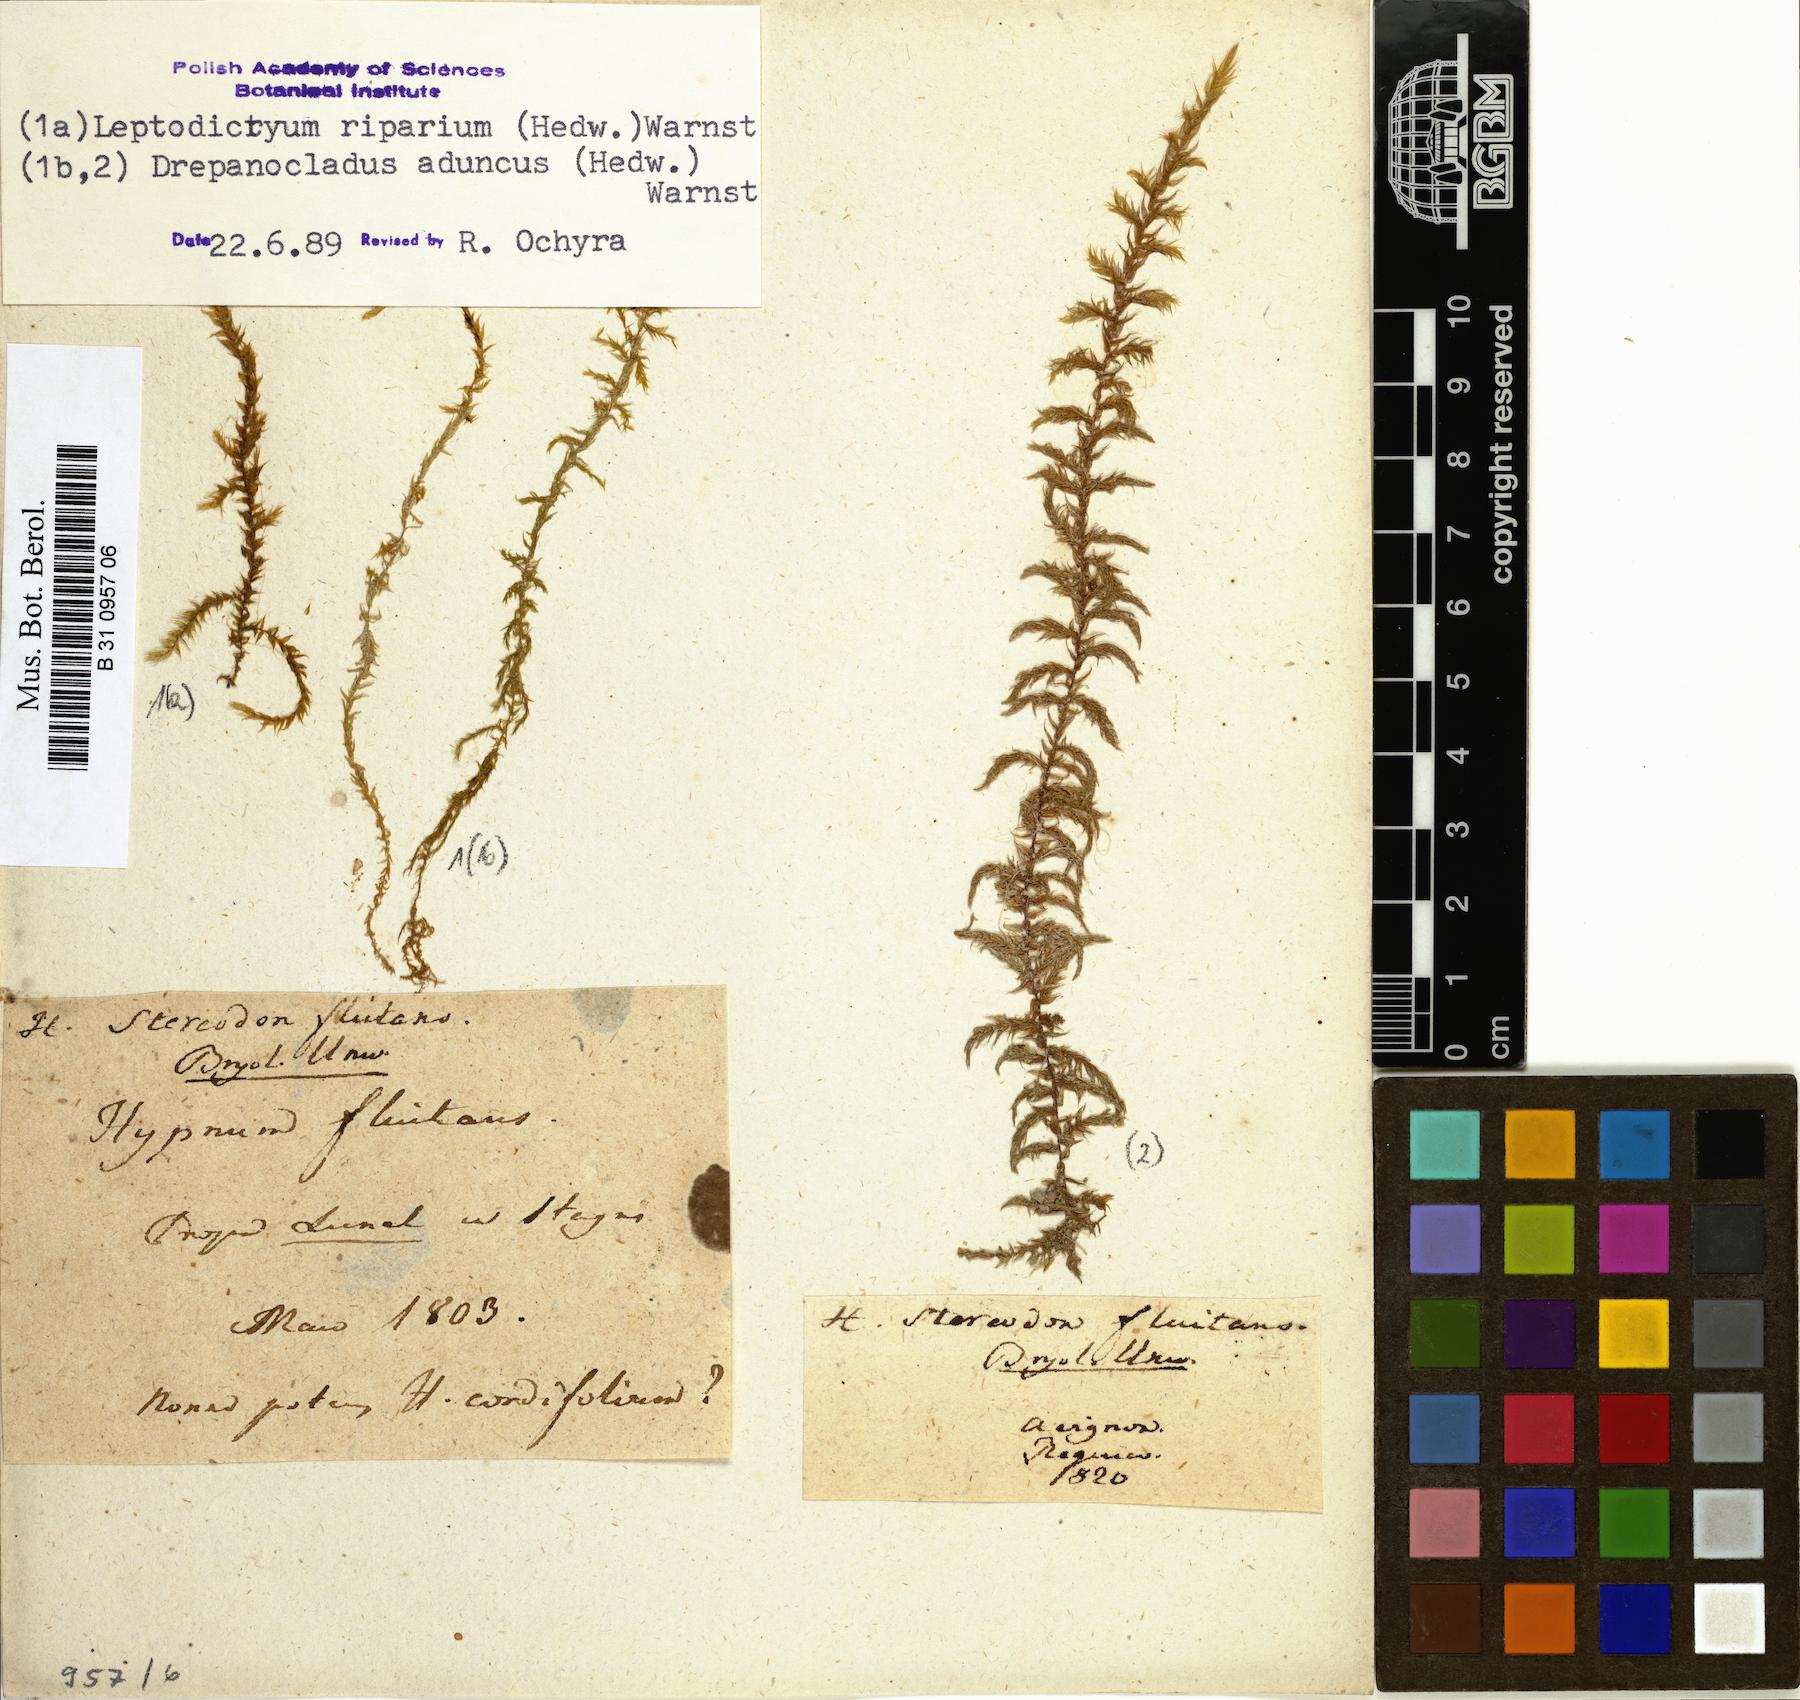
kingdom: Plantae
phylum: Bryophyta
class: Bryopsida
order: Hypnales
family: Calliergonaceae
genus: Warnstorfia
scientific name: Warnstorfia fluitans
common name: Floating hook moss
